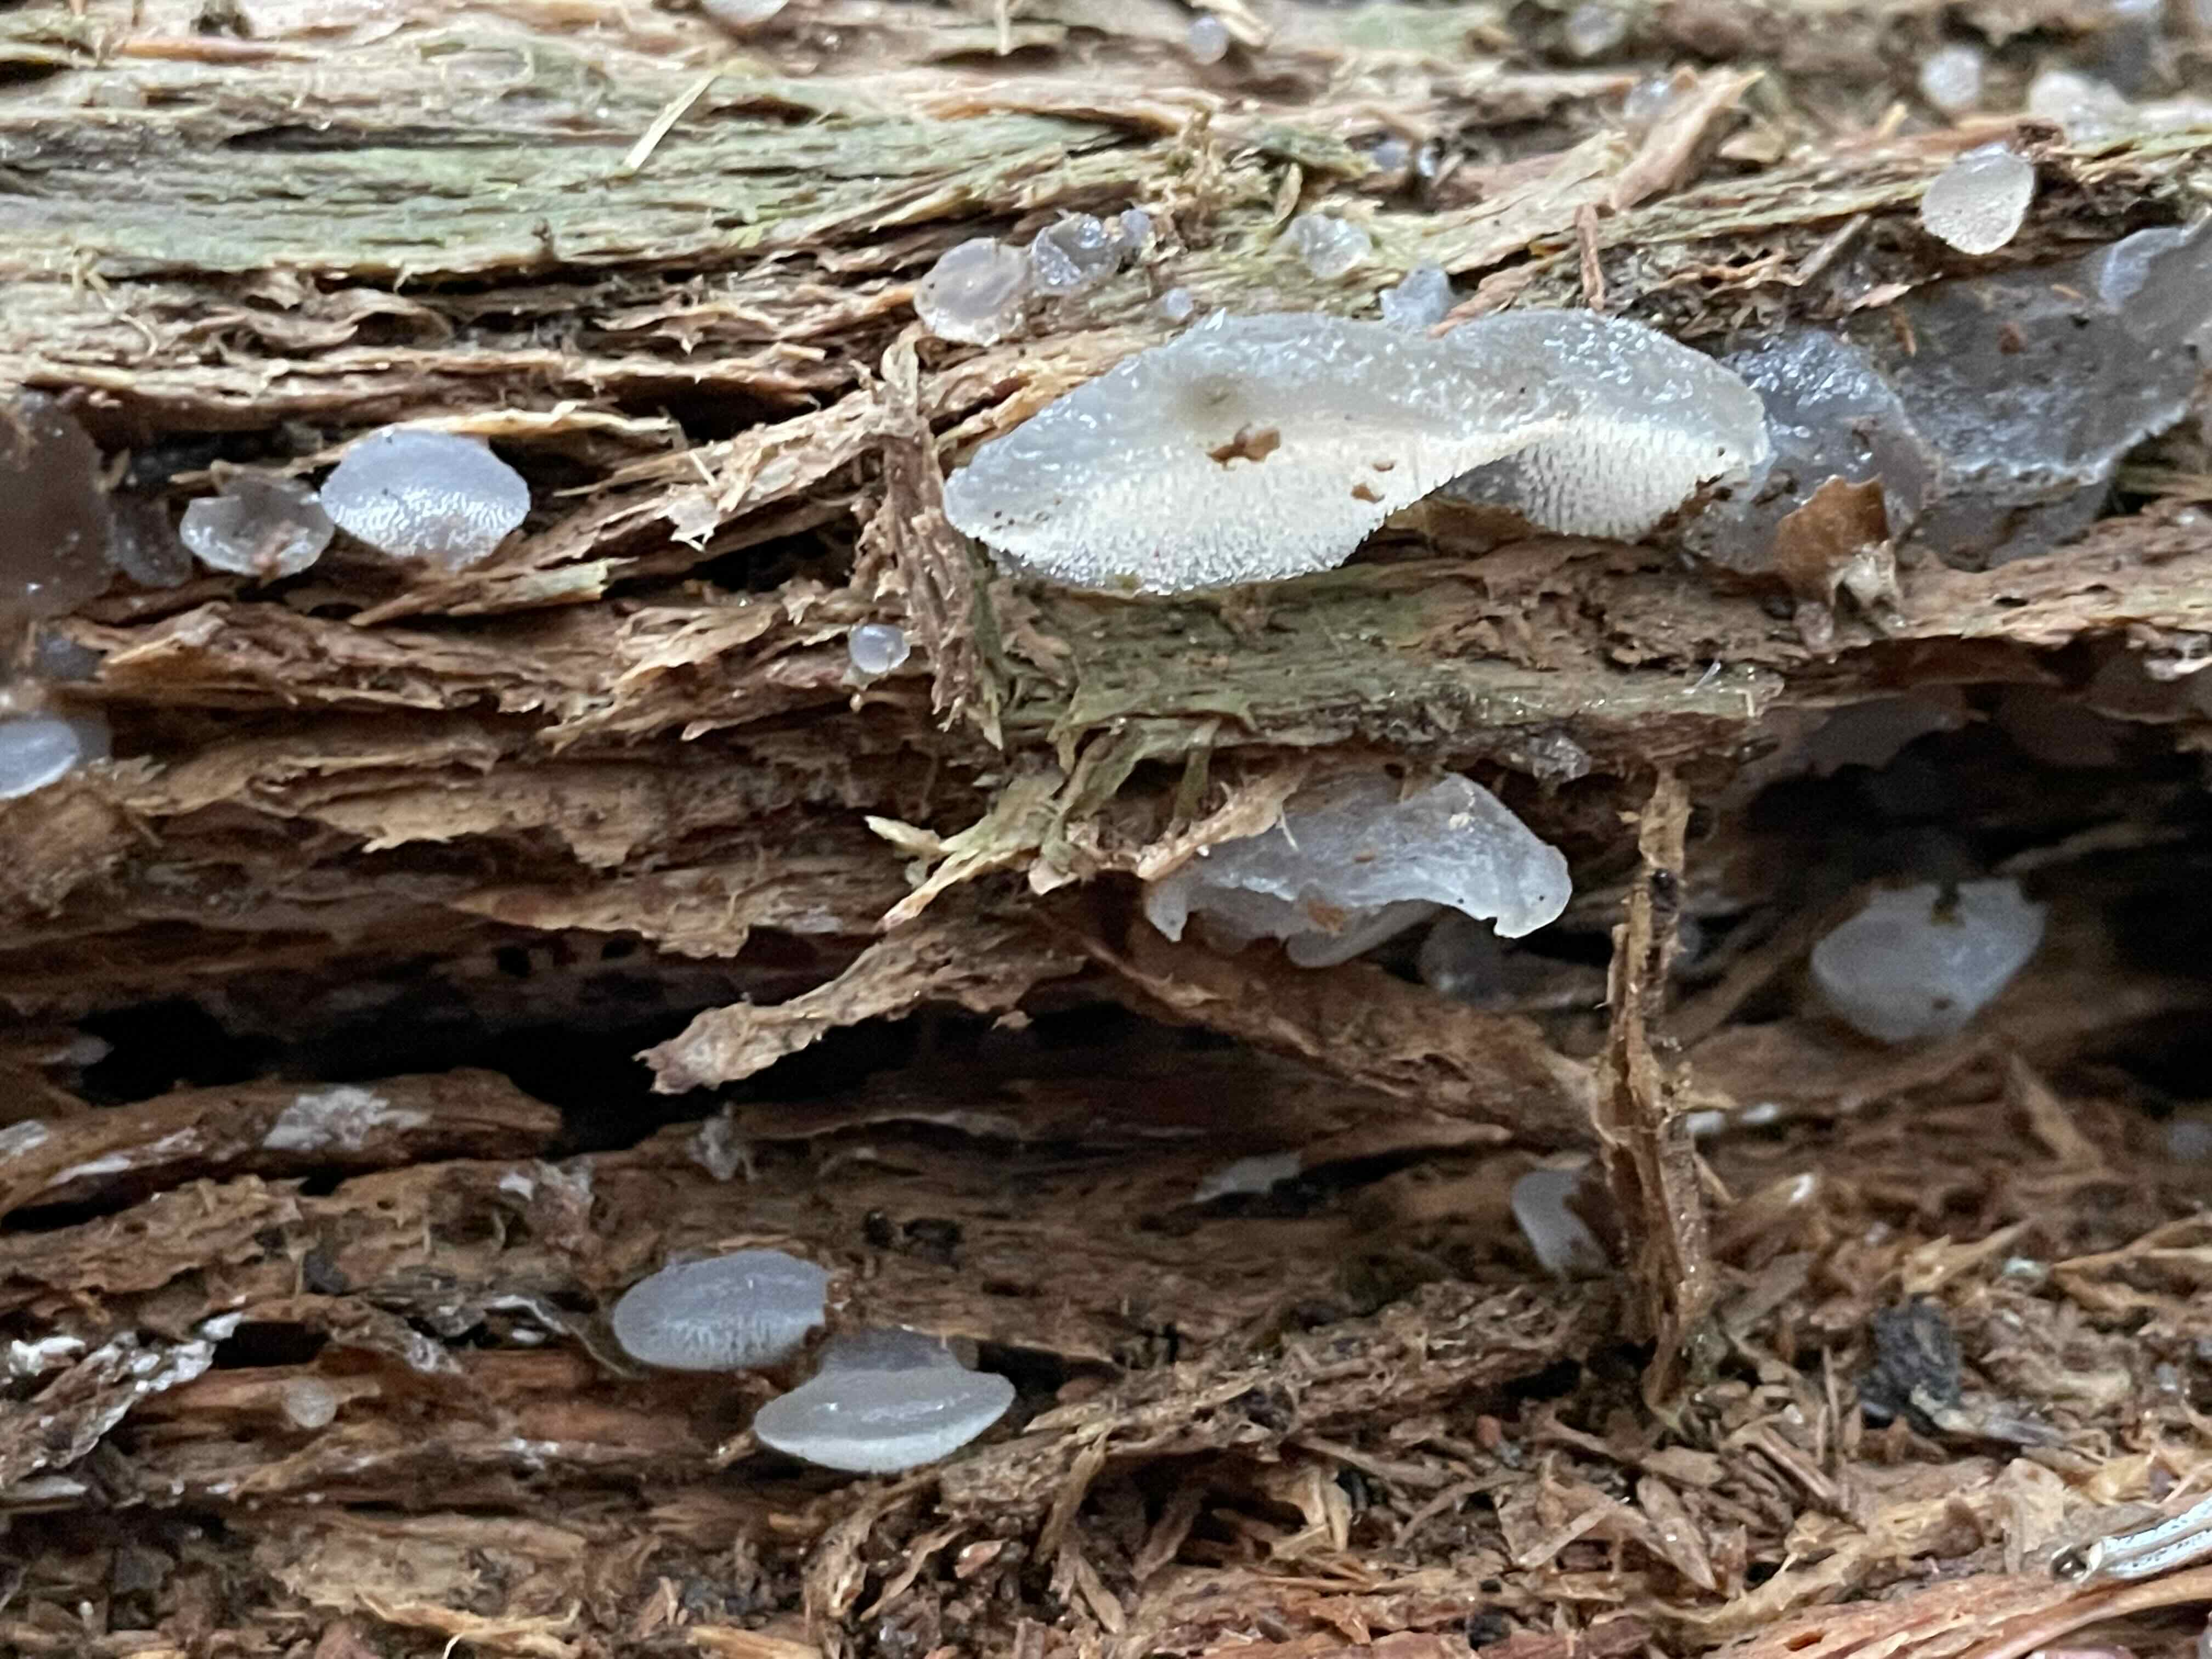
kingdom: Fungi
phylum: Basidiomycota
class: Agaricomycetes
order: Auriculariales
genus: Pseudohydnum
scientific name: Pseudohydnum gelatinosum
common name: bævretand
